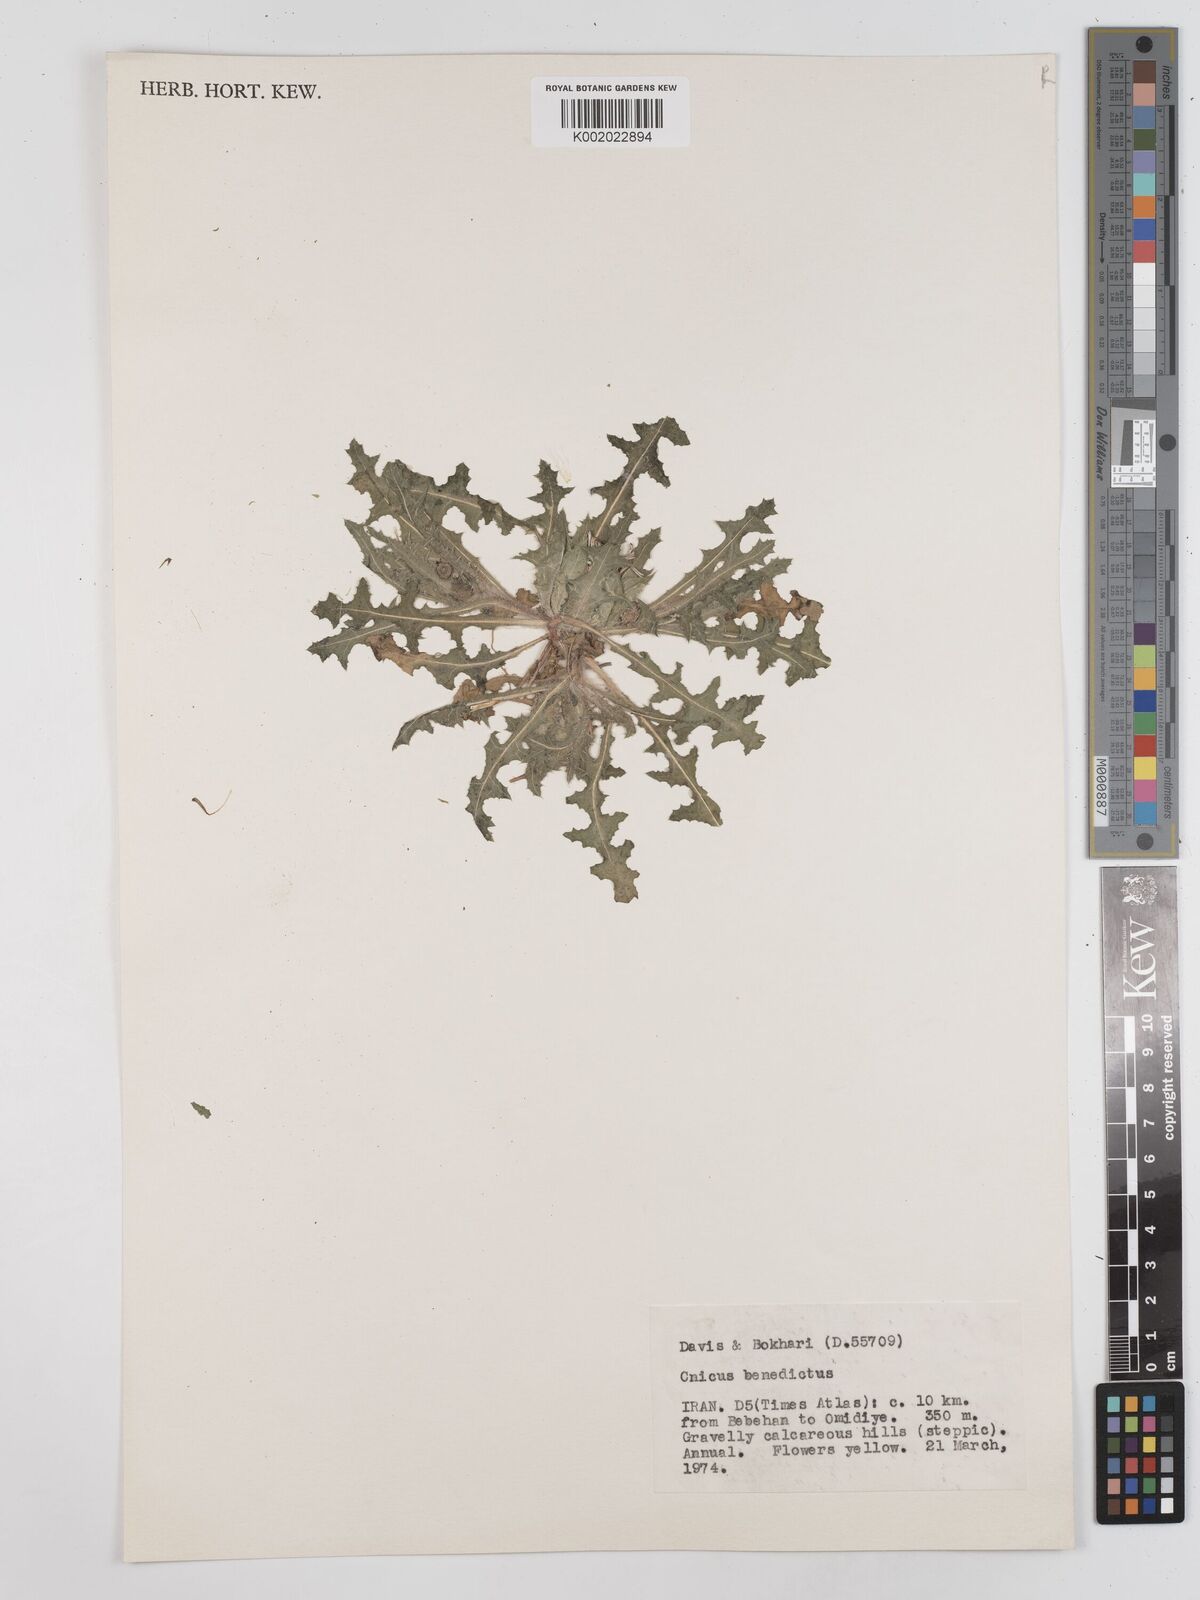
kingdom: Plantae
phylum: Tracheophyta
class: Magnoliopsida
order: Asterales
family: Asteraceae
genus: Centaurea
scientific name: Centaurea benedicta
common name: Blessed thistle
